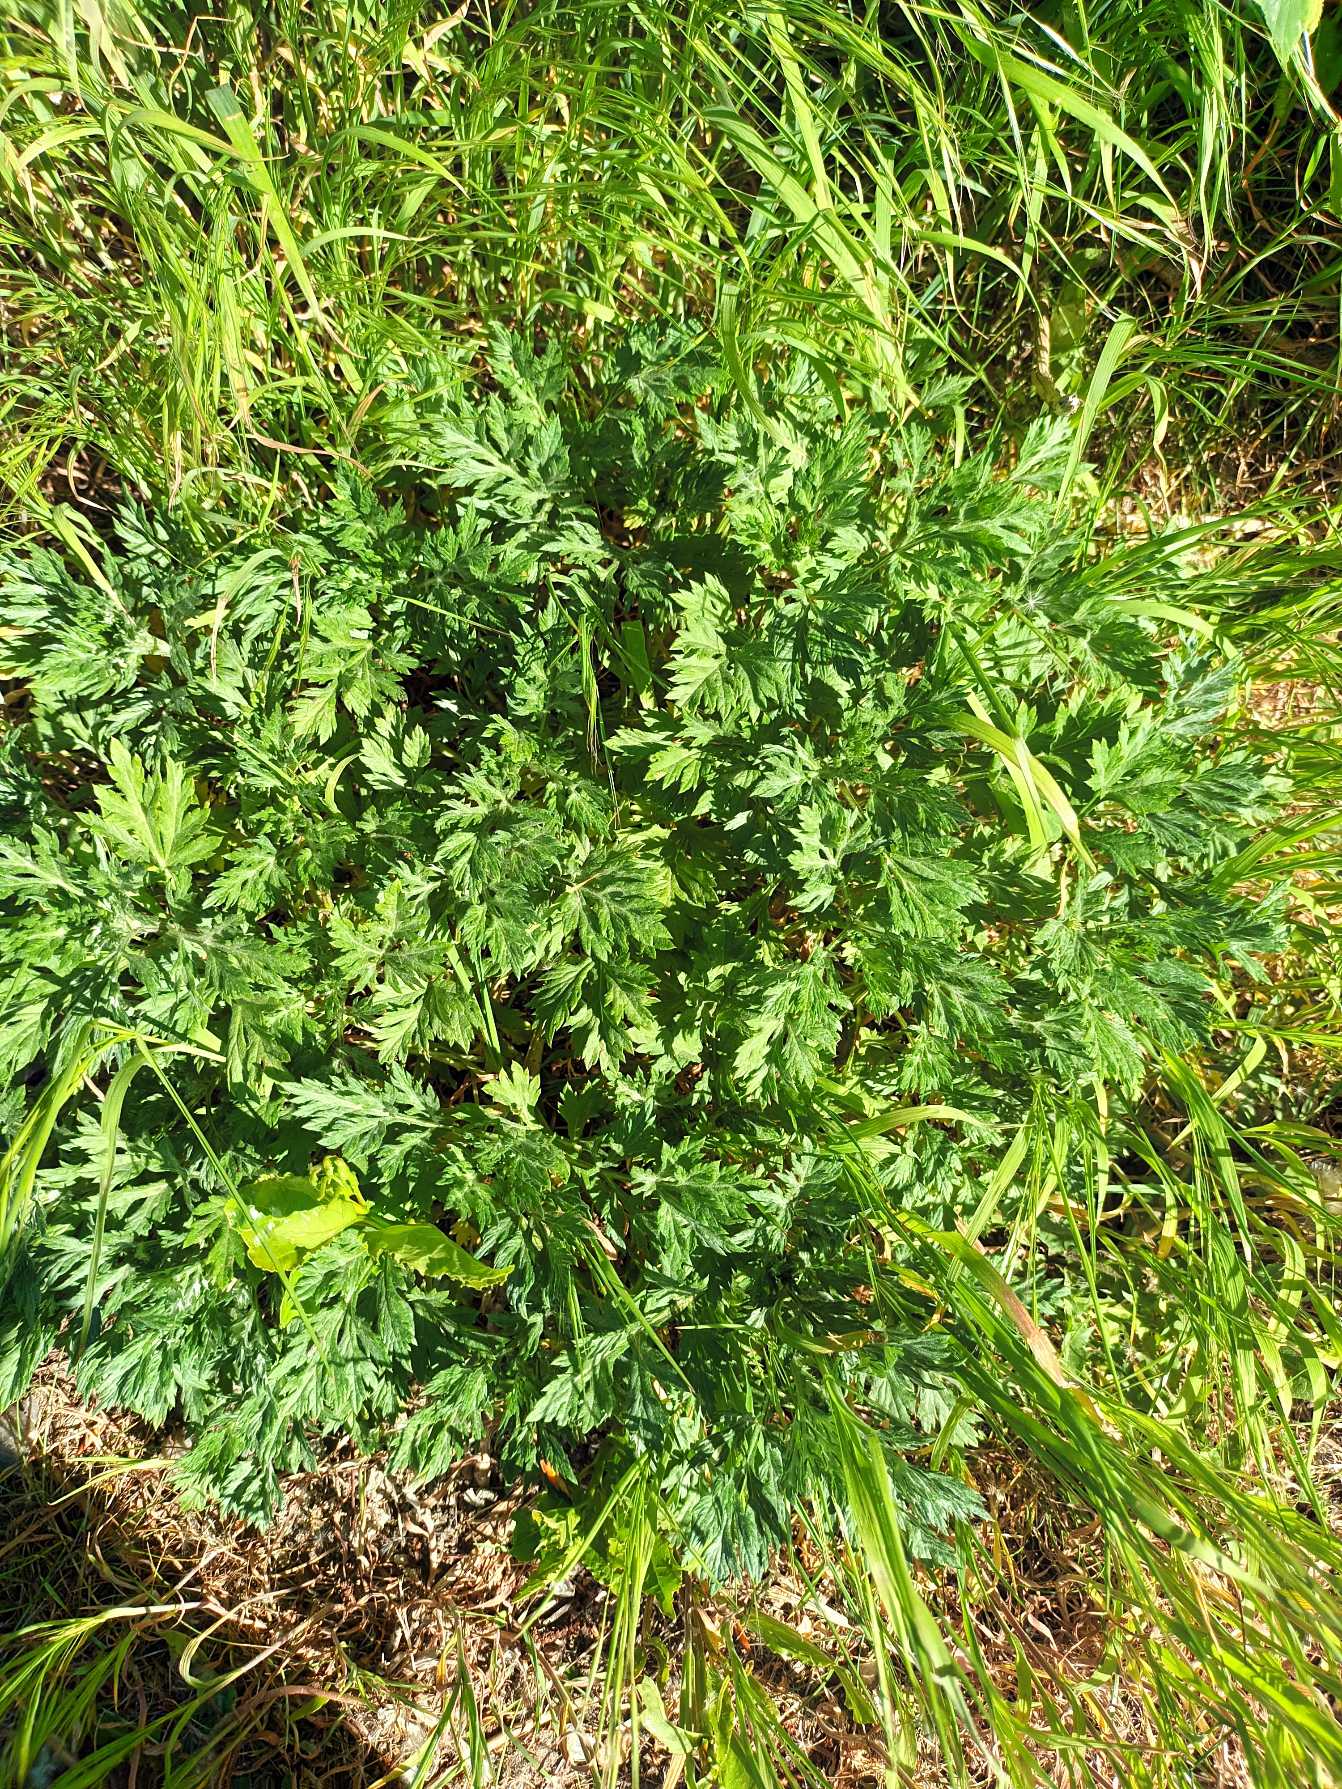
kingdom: Plantae
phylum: Tracheophyta
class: Magnoliopsida
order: Asterales
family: Asteraceae
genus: Artemisia
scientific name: Artemisia vulgaris
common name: Grå-bynke
